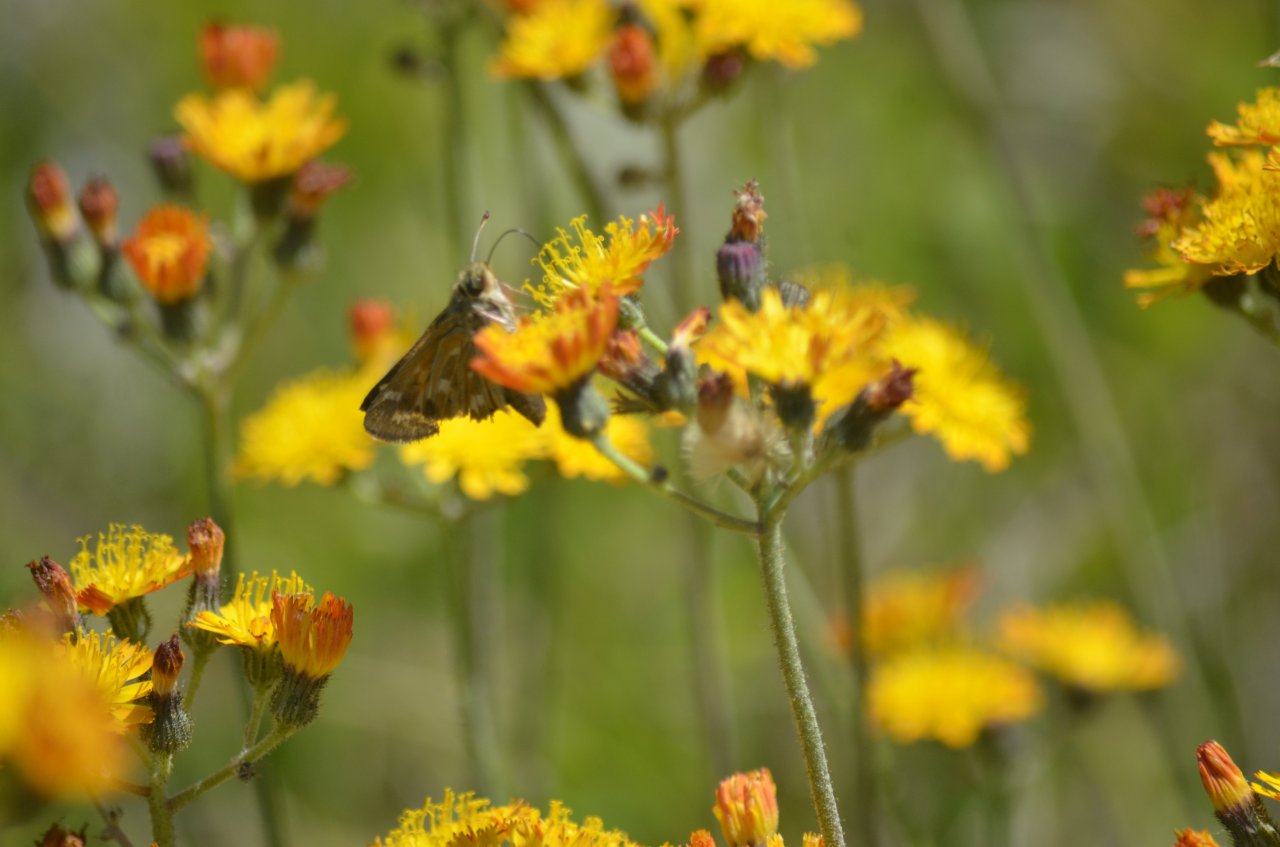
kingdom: Animalia
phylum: Arthropoda
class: Insecta
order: Lepidoptera
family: Hesperiidae
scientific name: Hesperiidae
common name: Skippers
